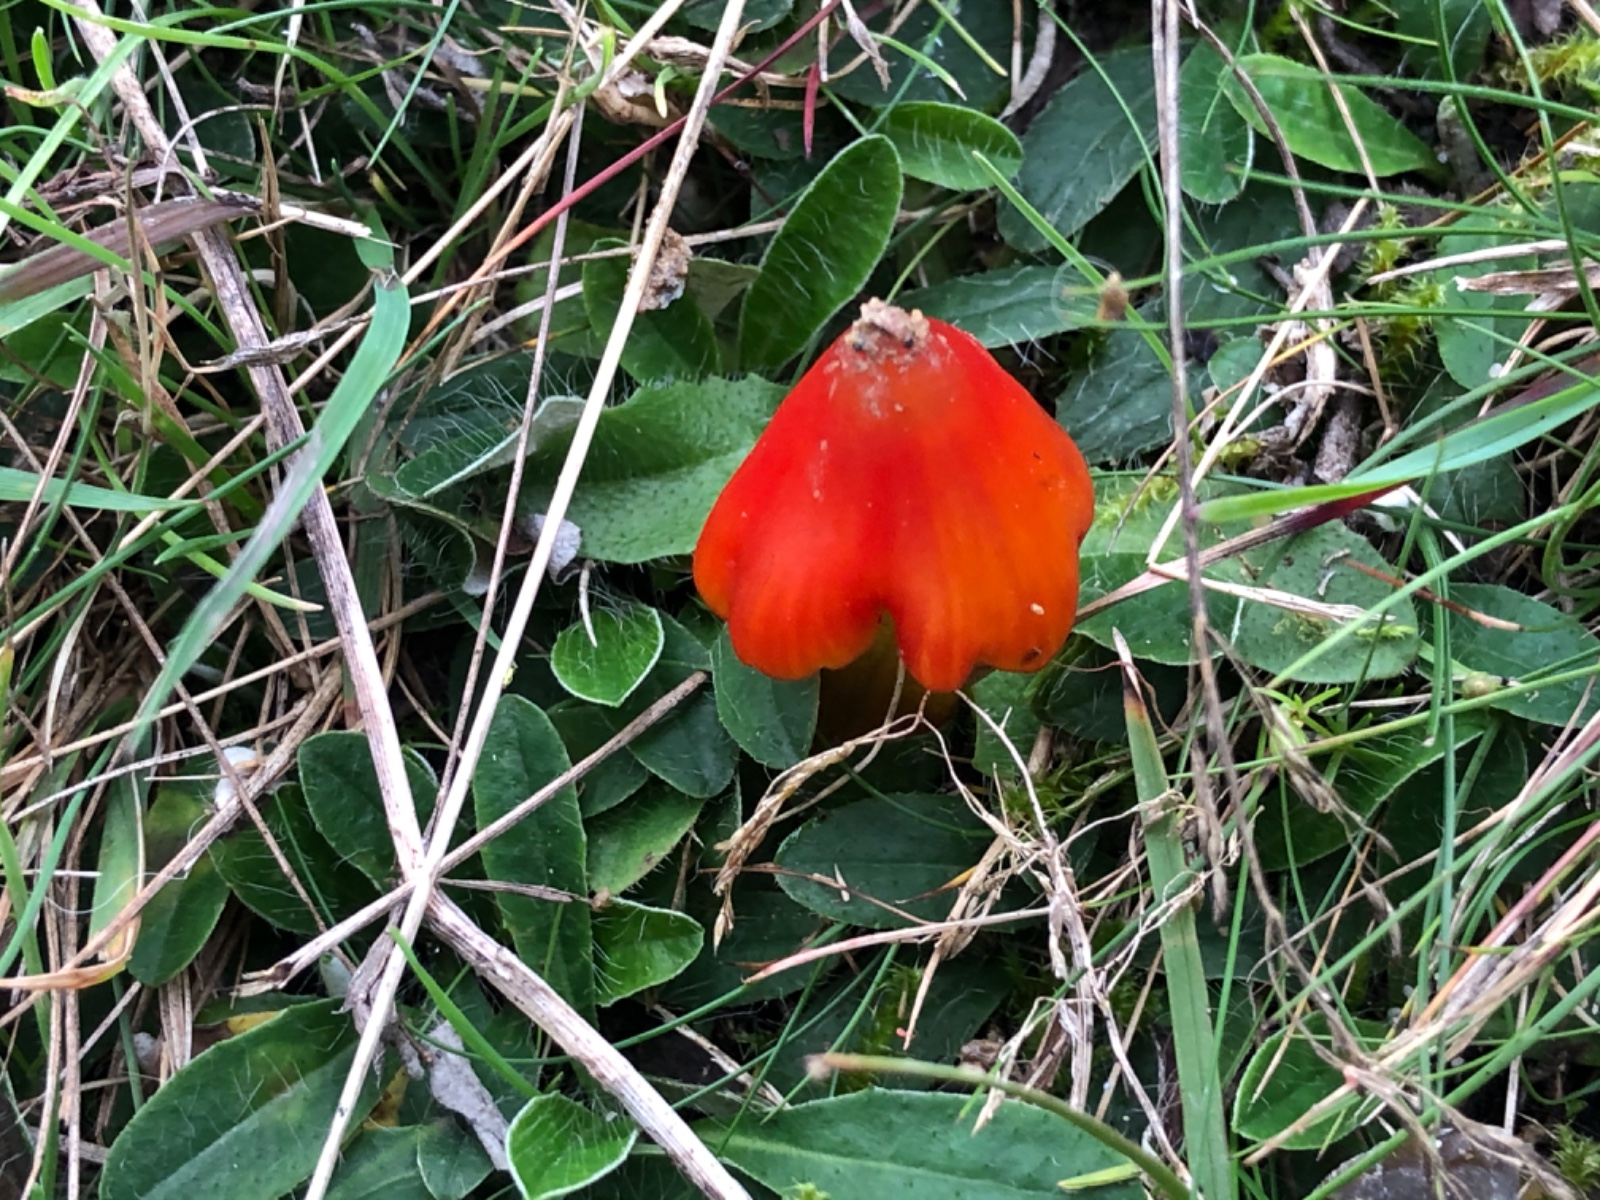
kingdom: Fungi
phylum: Basidiomycota
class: Agaricomycetes
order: Agaricales
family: Hygrophoraceae
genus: Hygrocybe
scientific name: Hygrocybe conica
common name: kegle-vokshat
